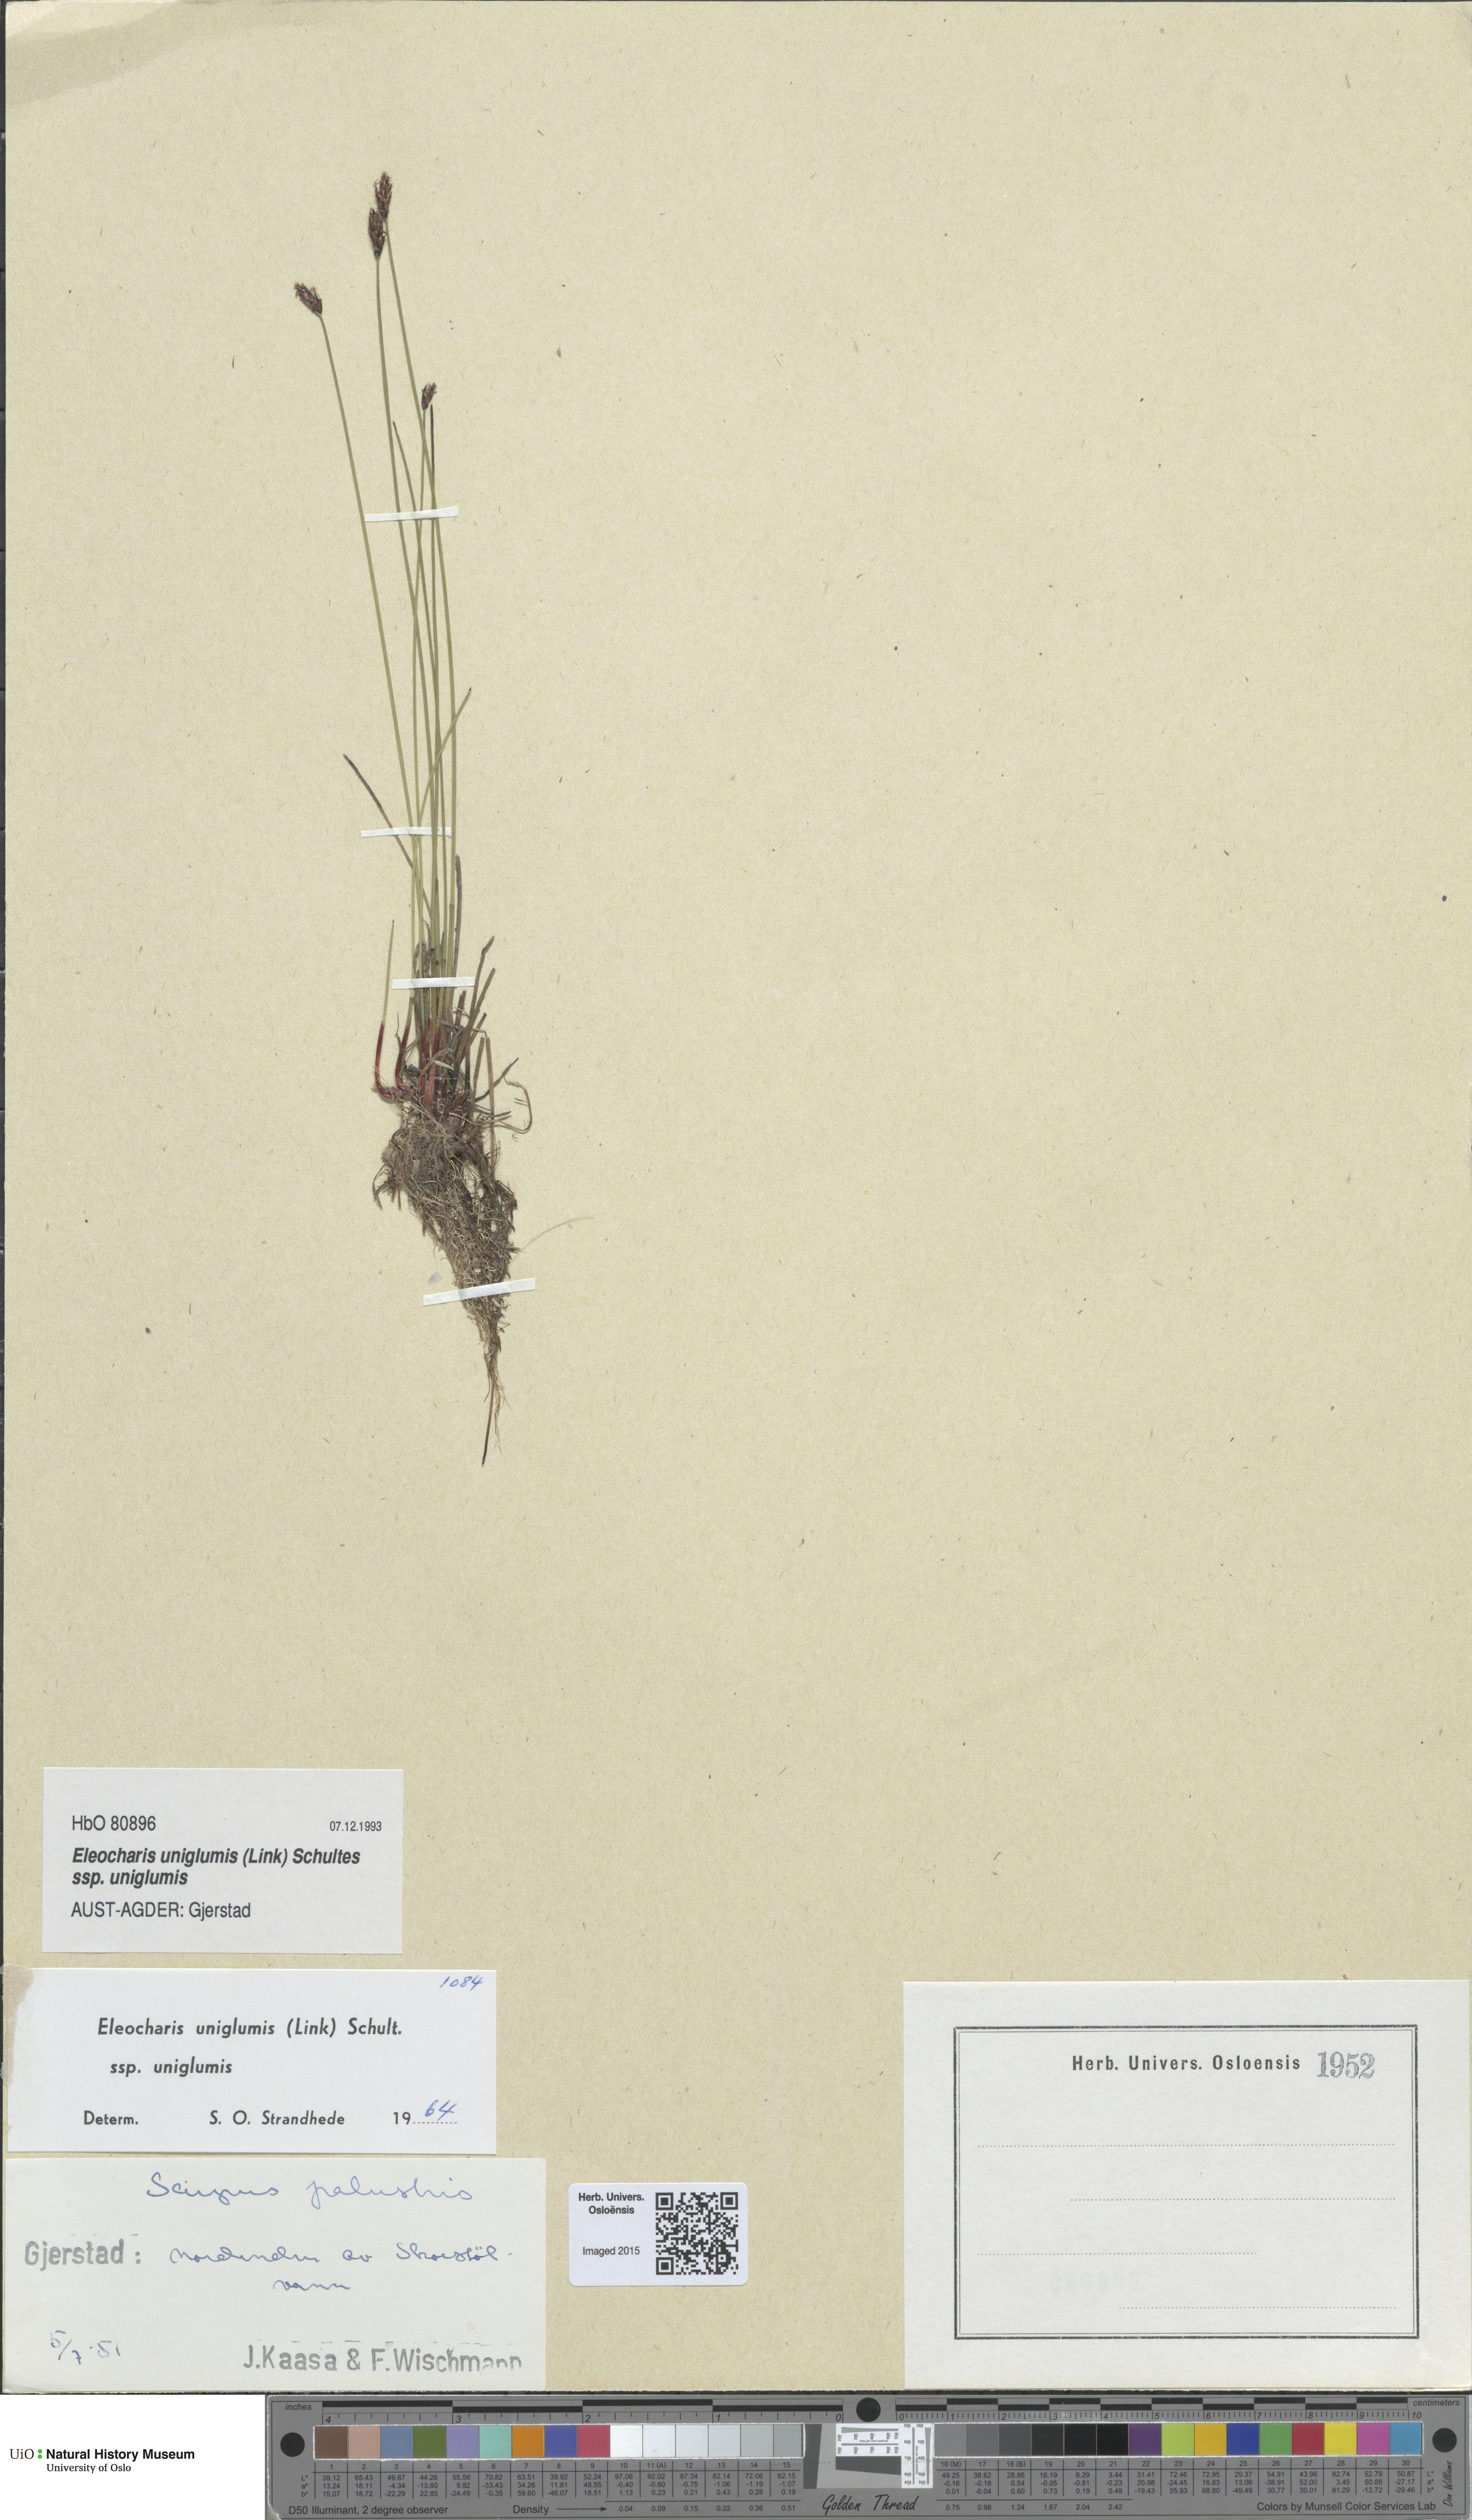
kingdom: Plantae
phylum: Tracheophyta
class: Liliopsida
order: Poales
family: Cyperaceae
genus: Eleocharis
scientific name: Eleocharis uniglumis
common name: Slender spike-rush
